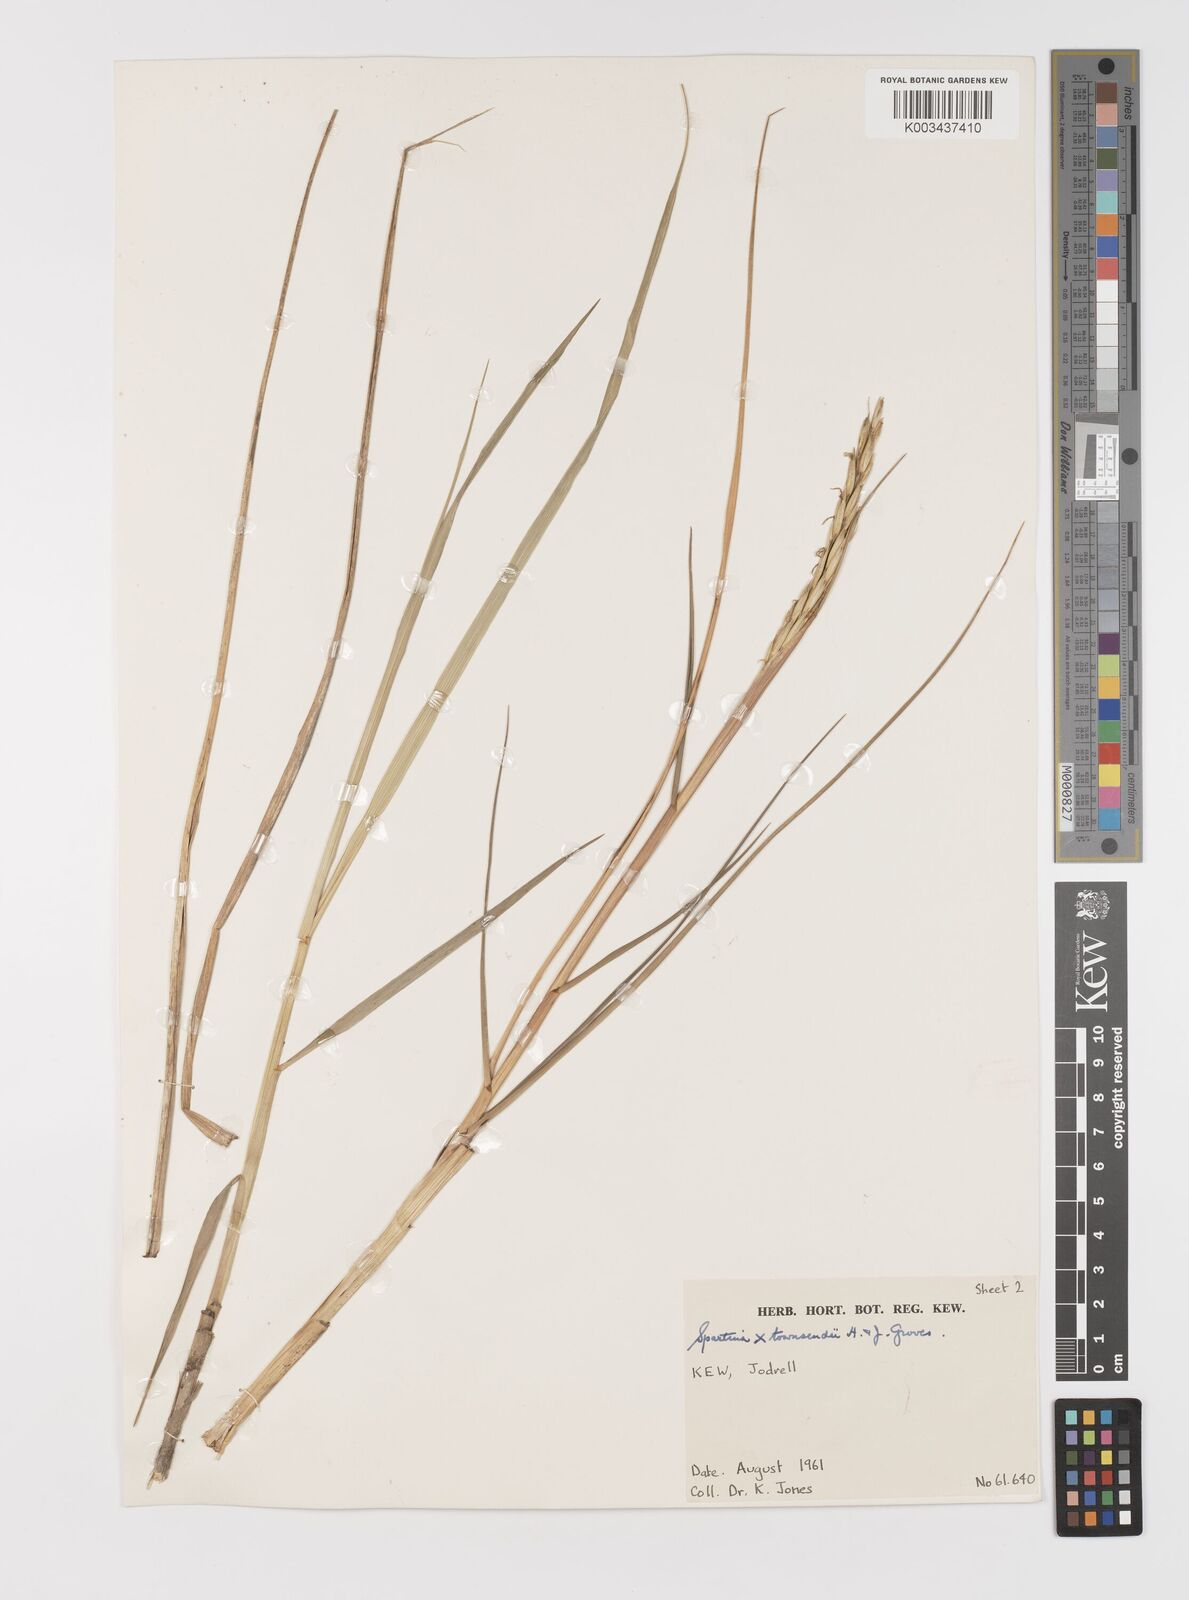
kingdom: Plantae
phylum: Tracheophyta
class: Liliopsida
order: Poales
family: Poaceae
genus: Sporobolus
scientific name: Sporobolus townsendii
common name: Townsend's cordgrass
